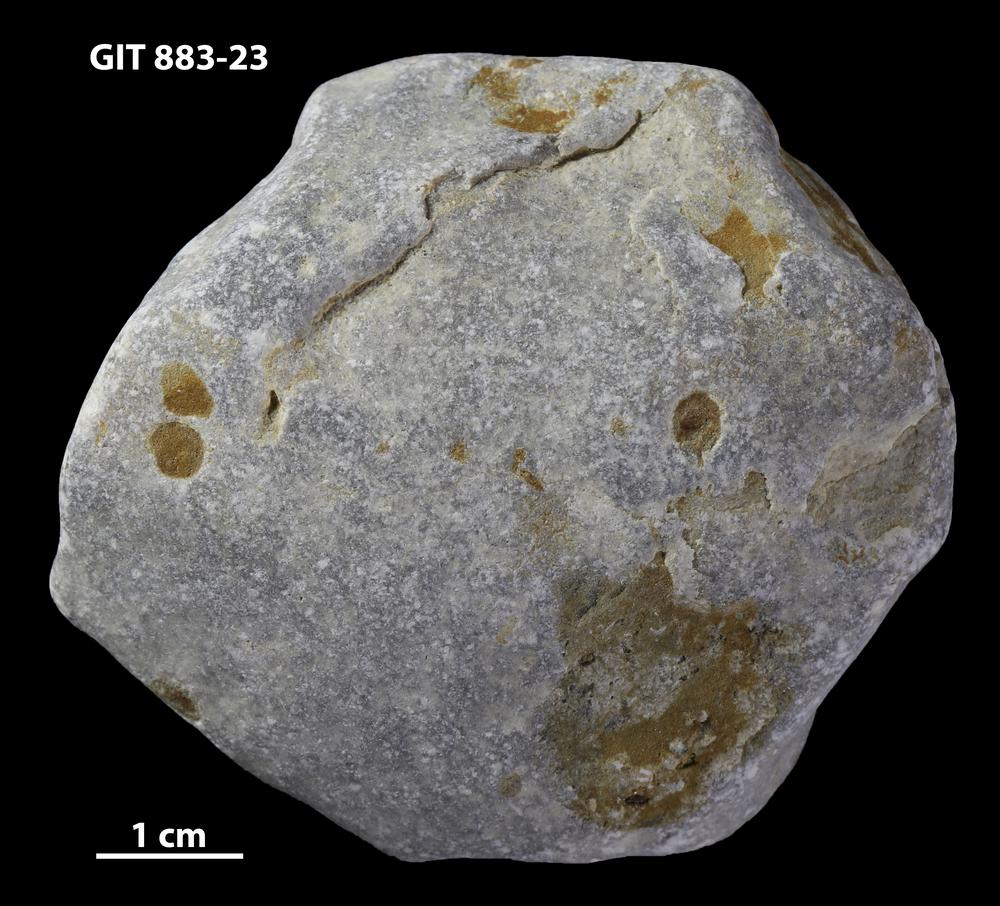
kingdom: Animalia
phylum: Porifera
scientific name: Porifera
